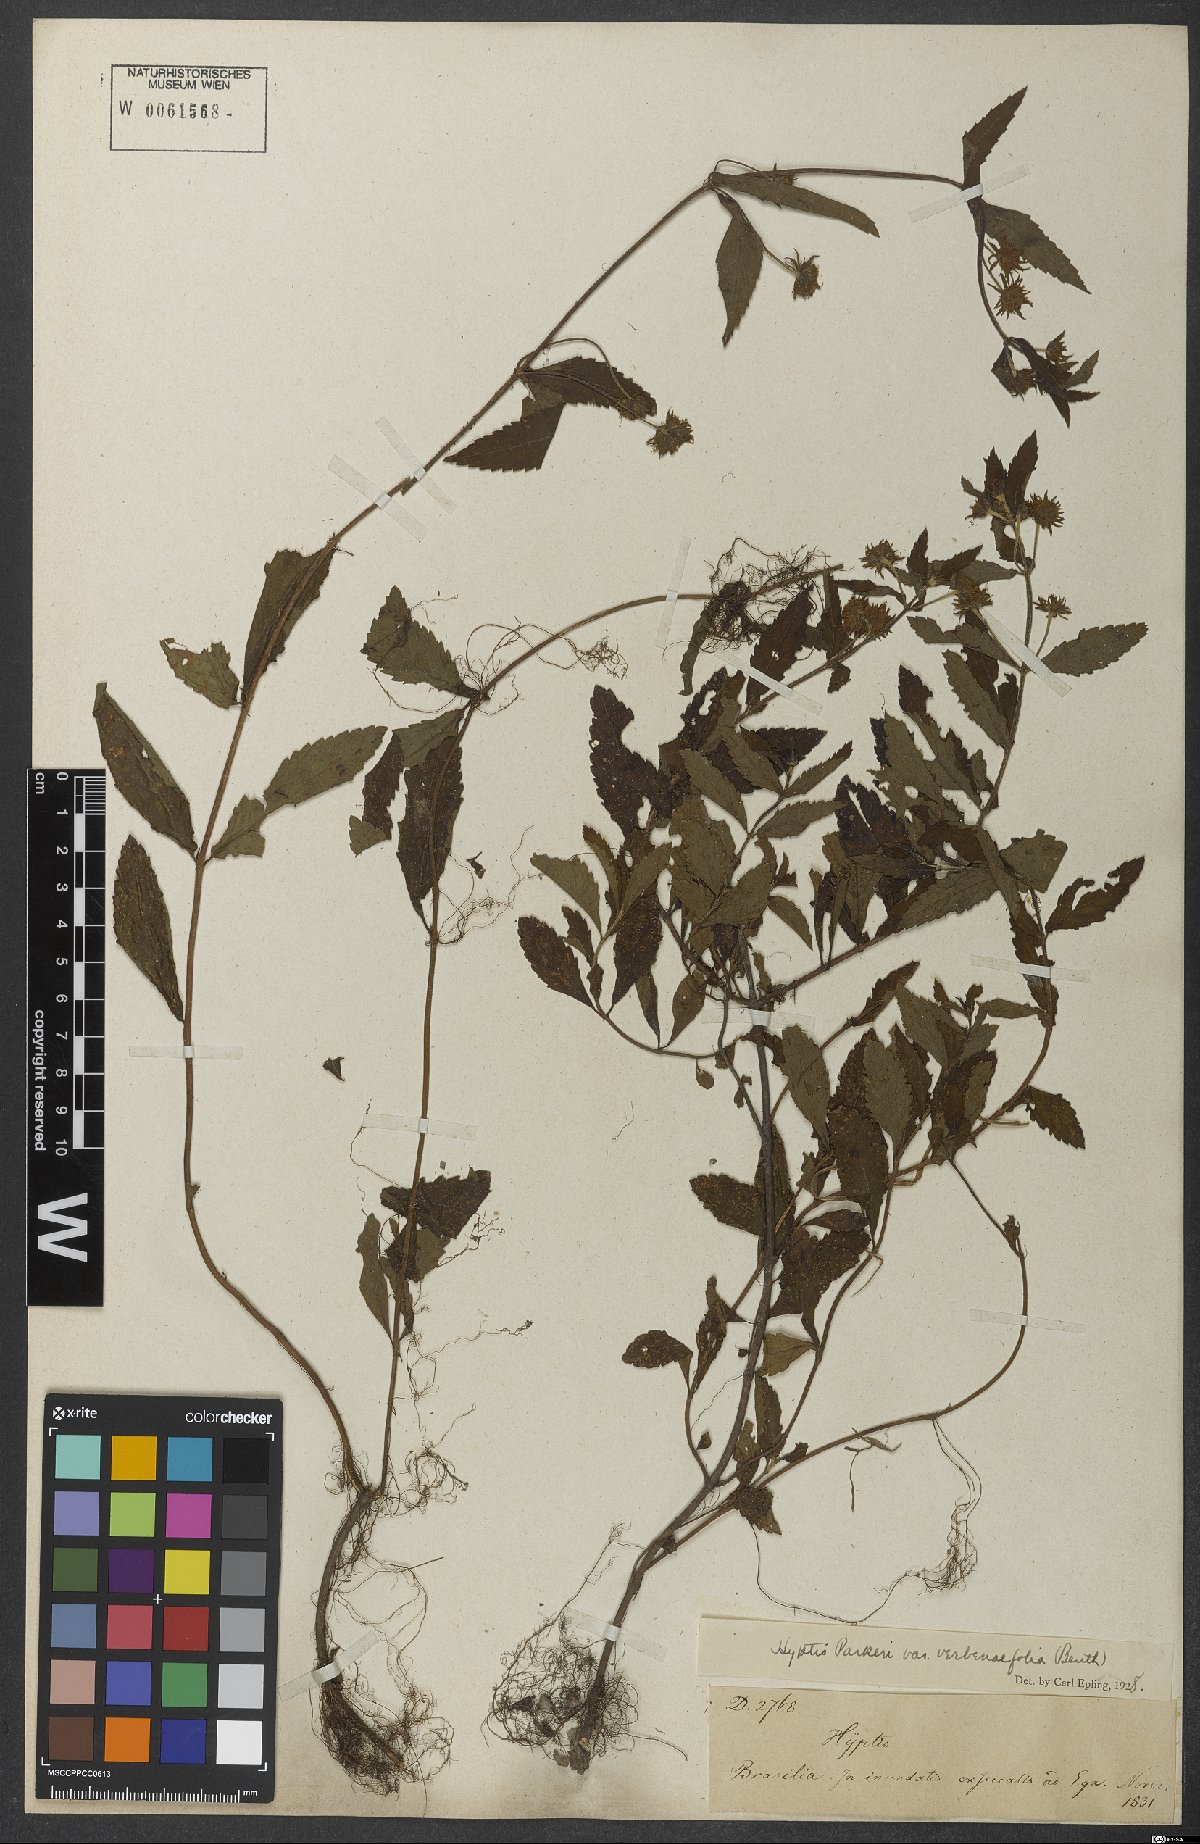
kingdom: Plantae
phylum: Tracheophyta
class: Magnoliopsida
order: Lamiales
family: Lamiaceae
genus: Hyptis
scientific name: Hyptis parkeri
